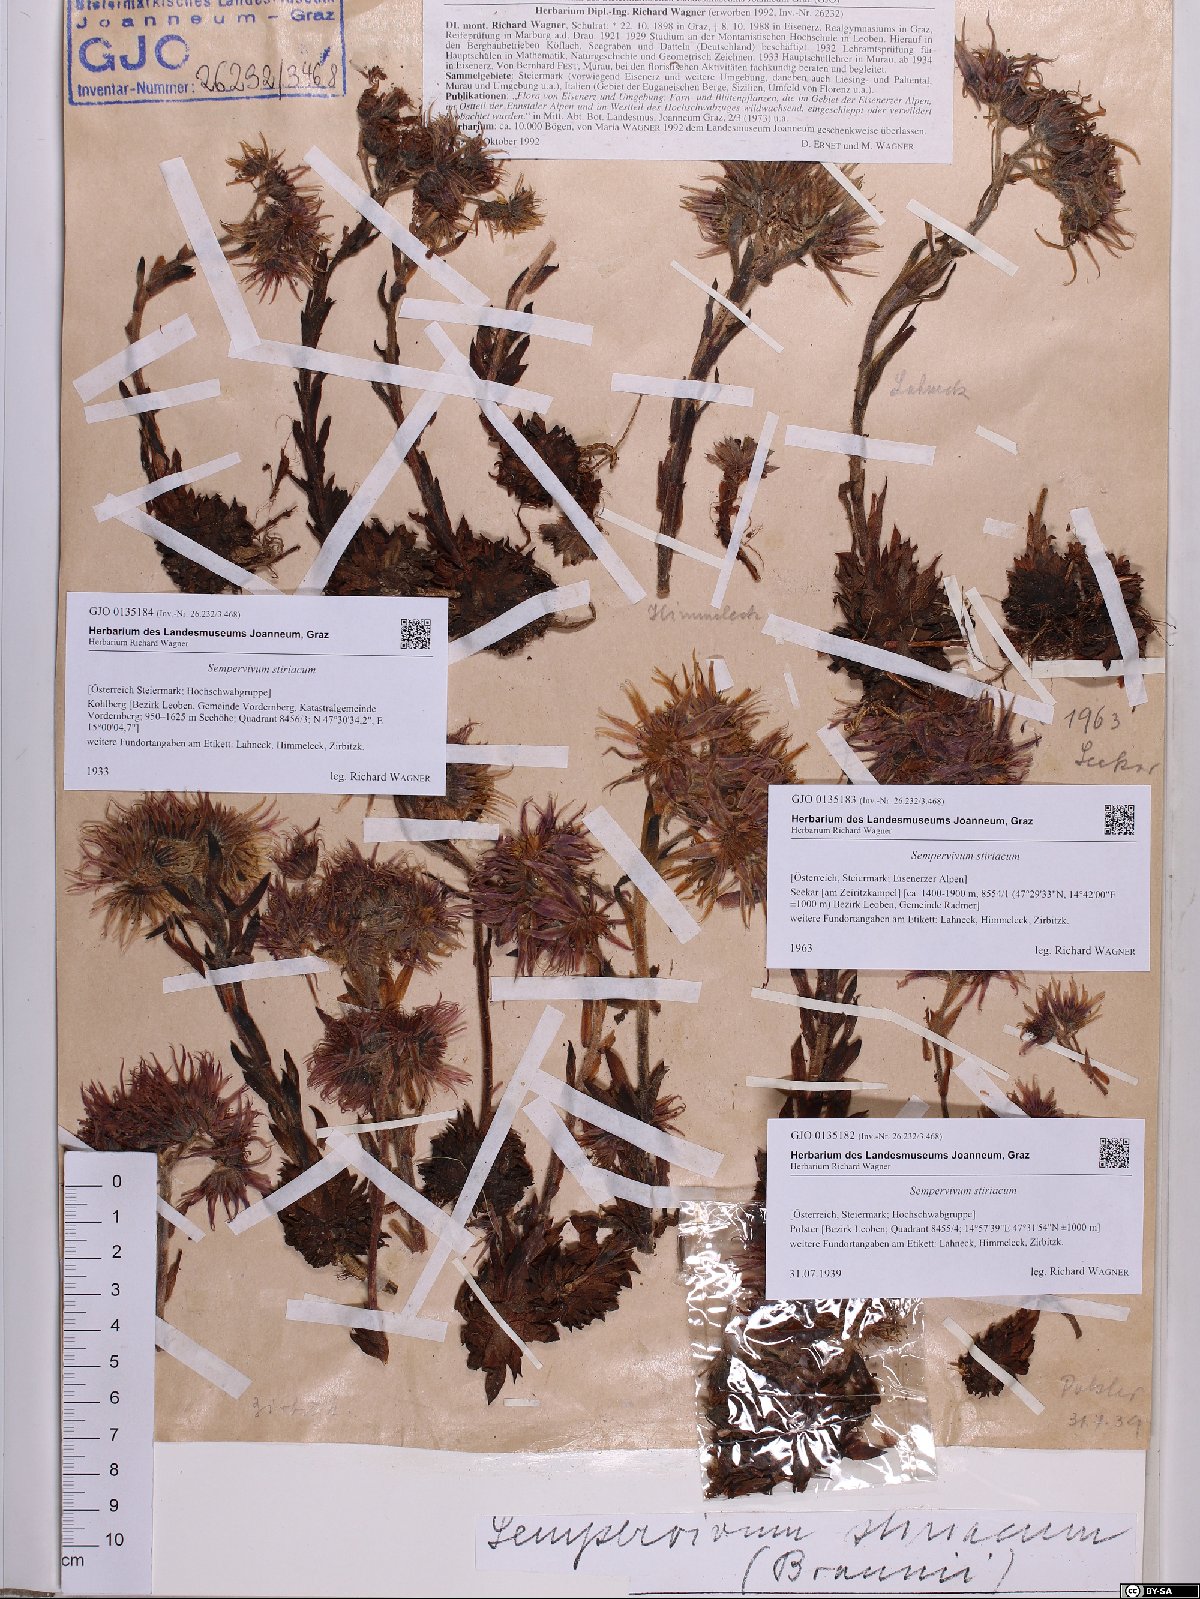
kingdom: Plantae
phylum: Tracheophyta
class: Magnoliopsida
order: Saxifragales
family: Crassulaceae
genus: Sempervivum
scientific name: Sempervivum montanum
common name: Mountain house-leek
